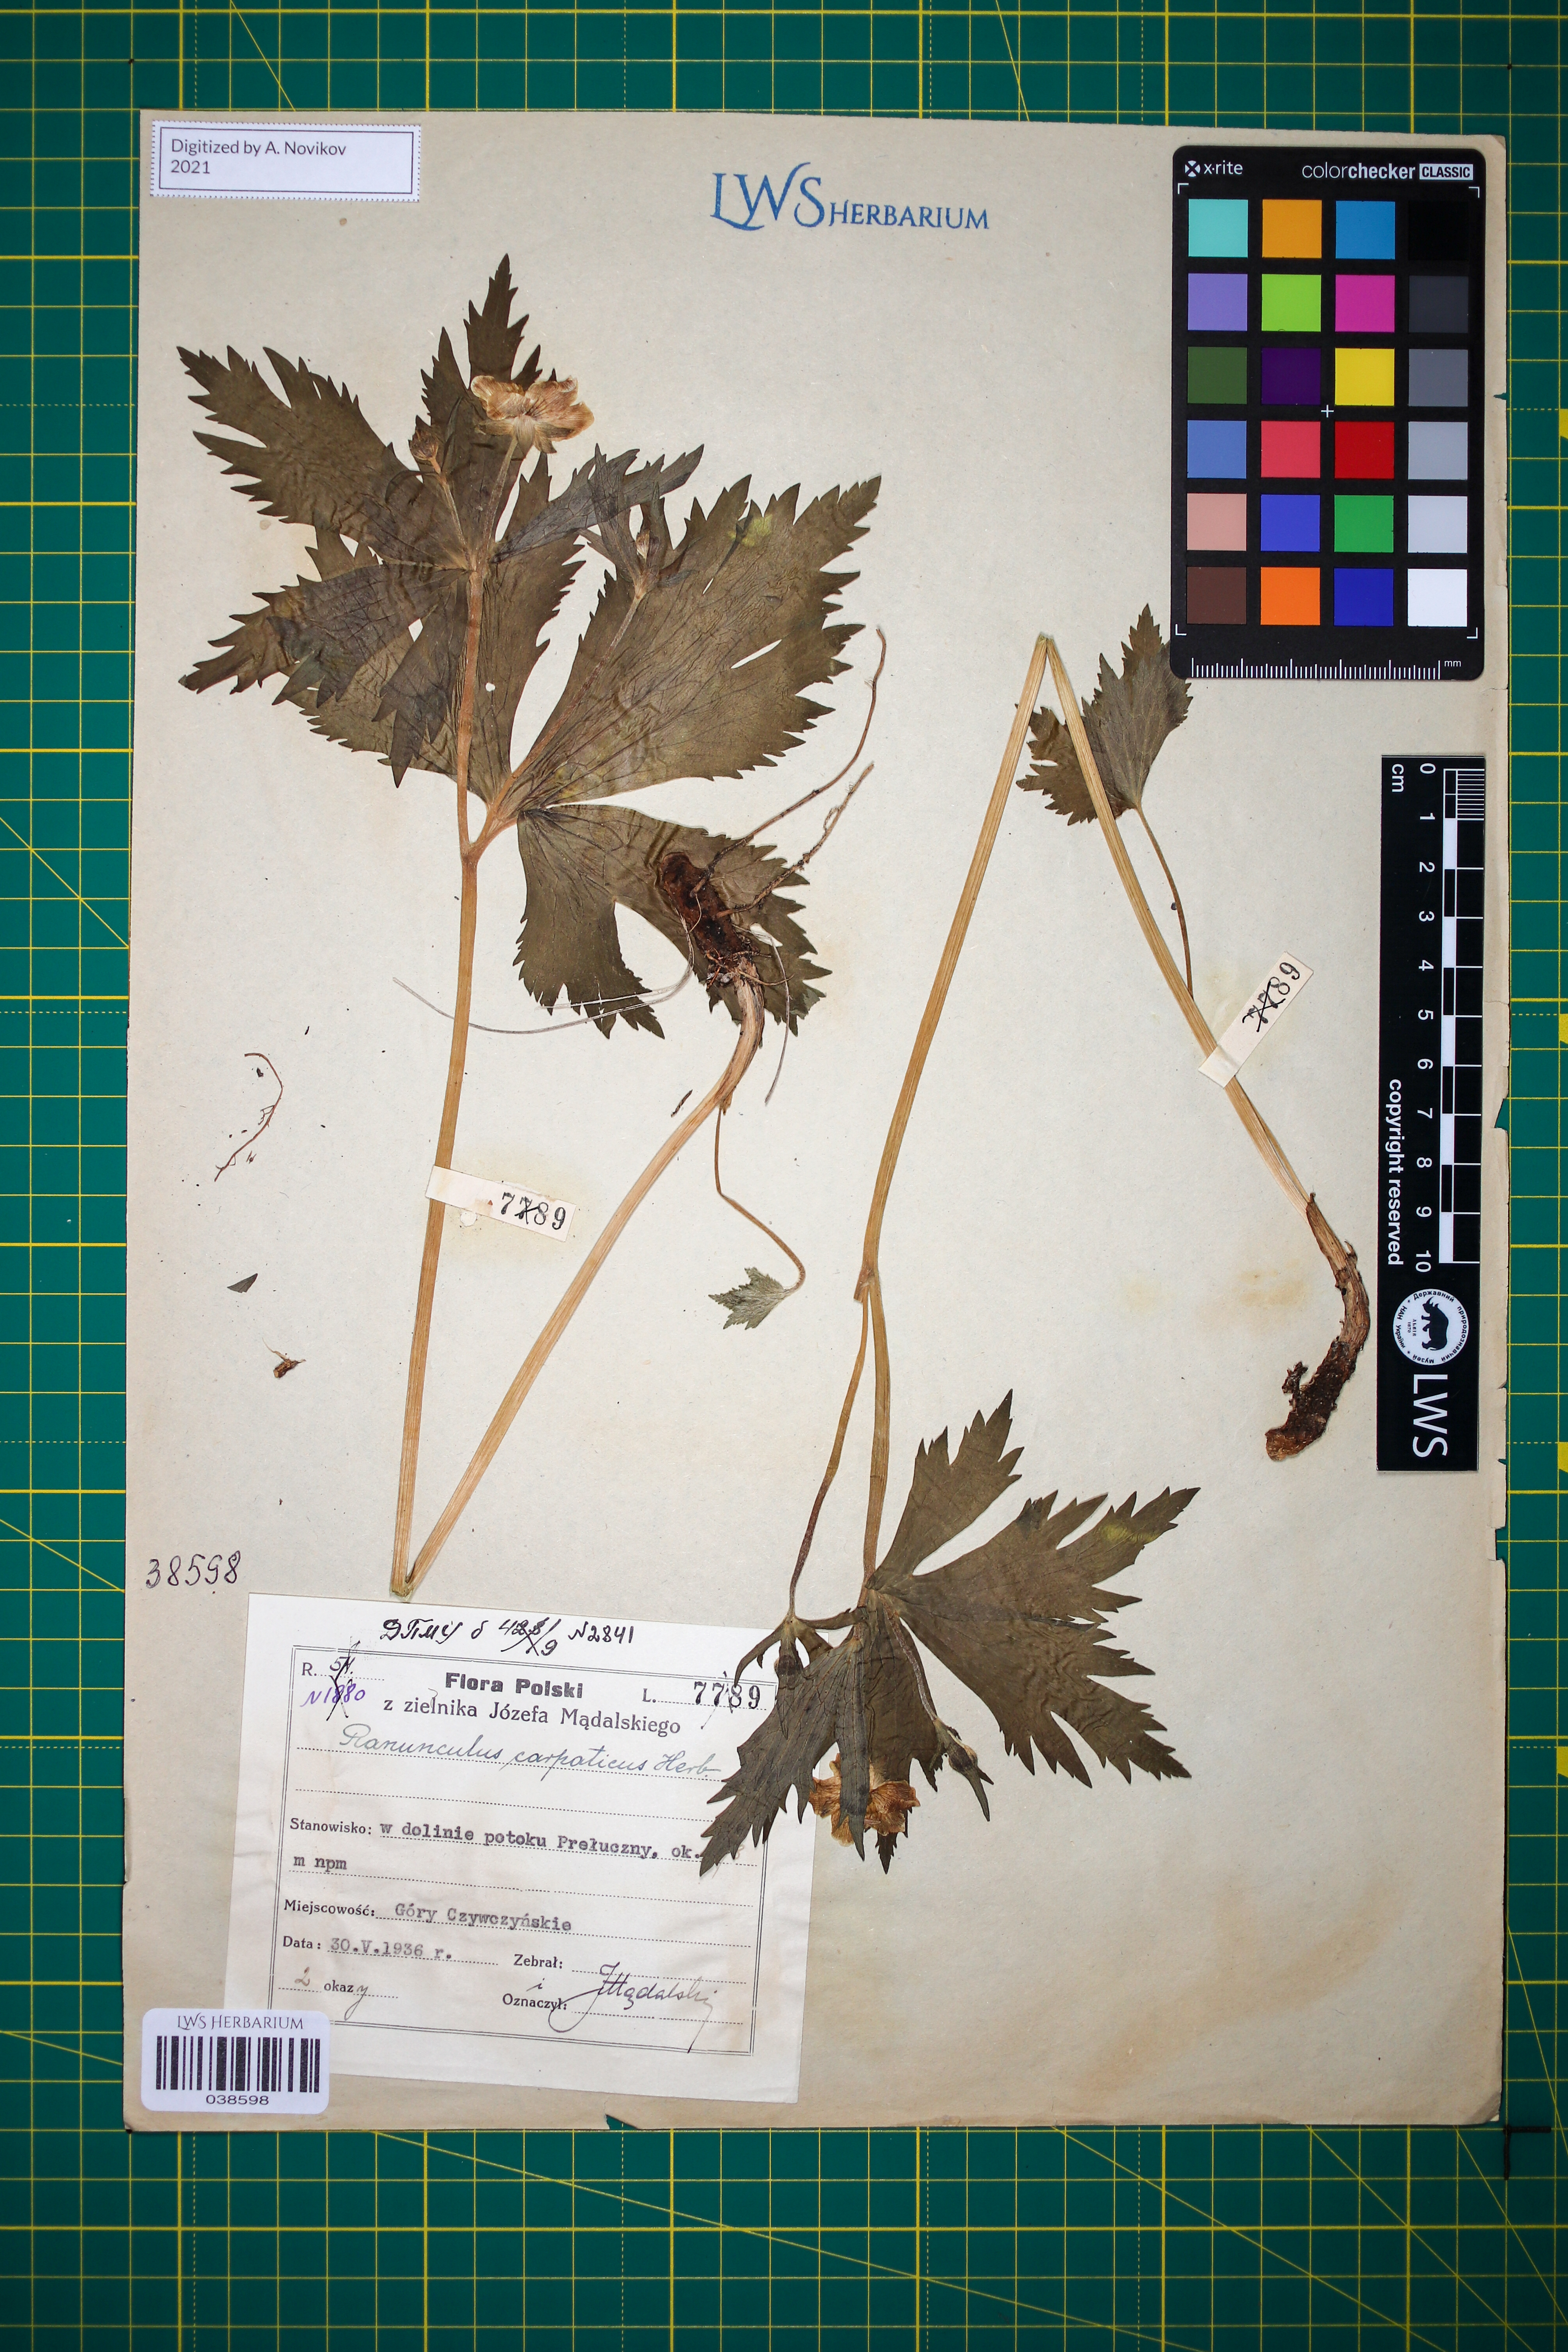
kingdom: Plantae
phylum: Tracheophyta
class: Magnoliopsida
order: Ranunculales
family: Ranunculaceae
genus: Ranunculus
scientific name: Ranunculus carpaticus
